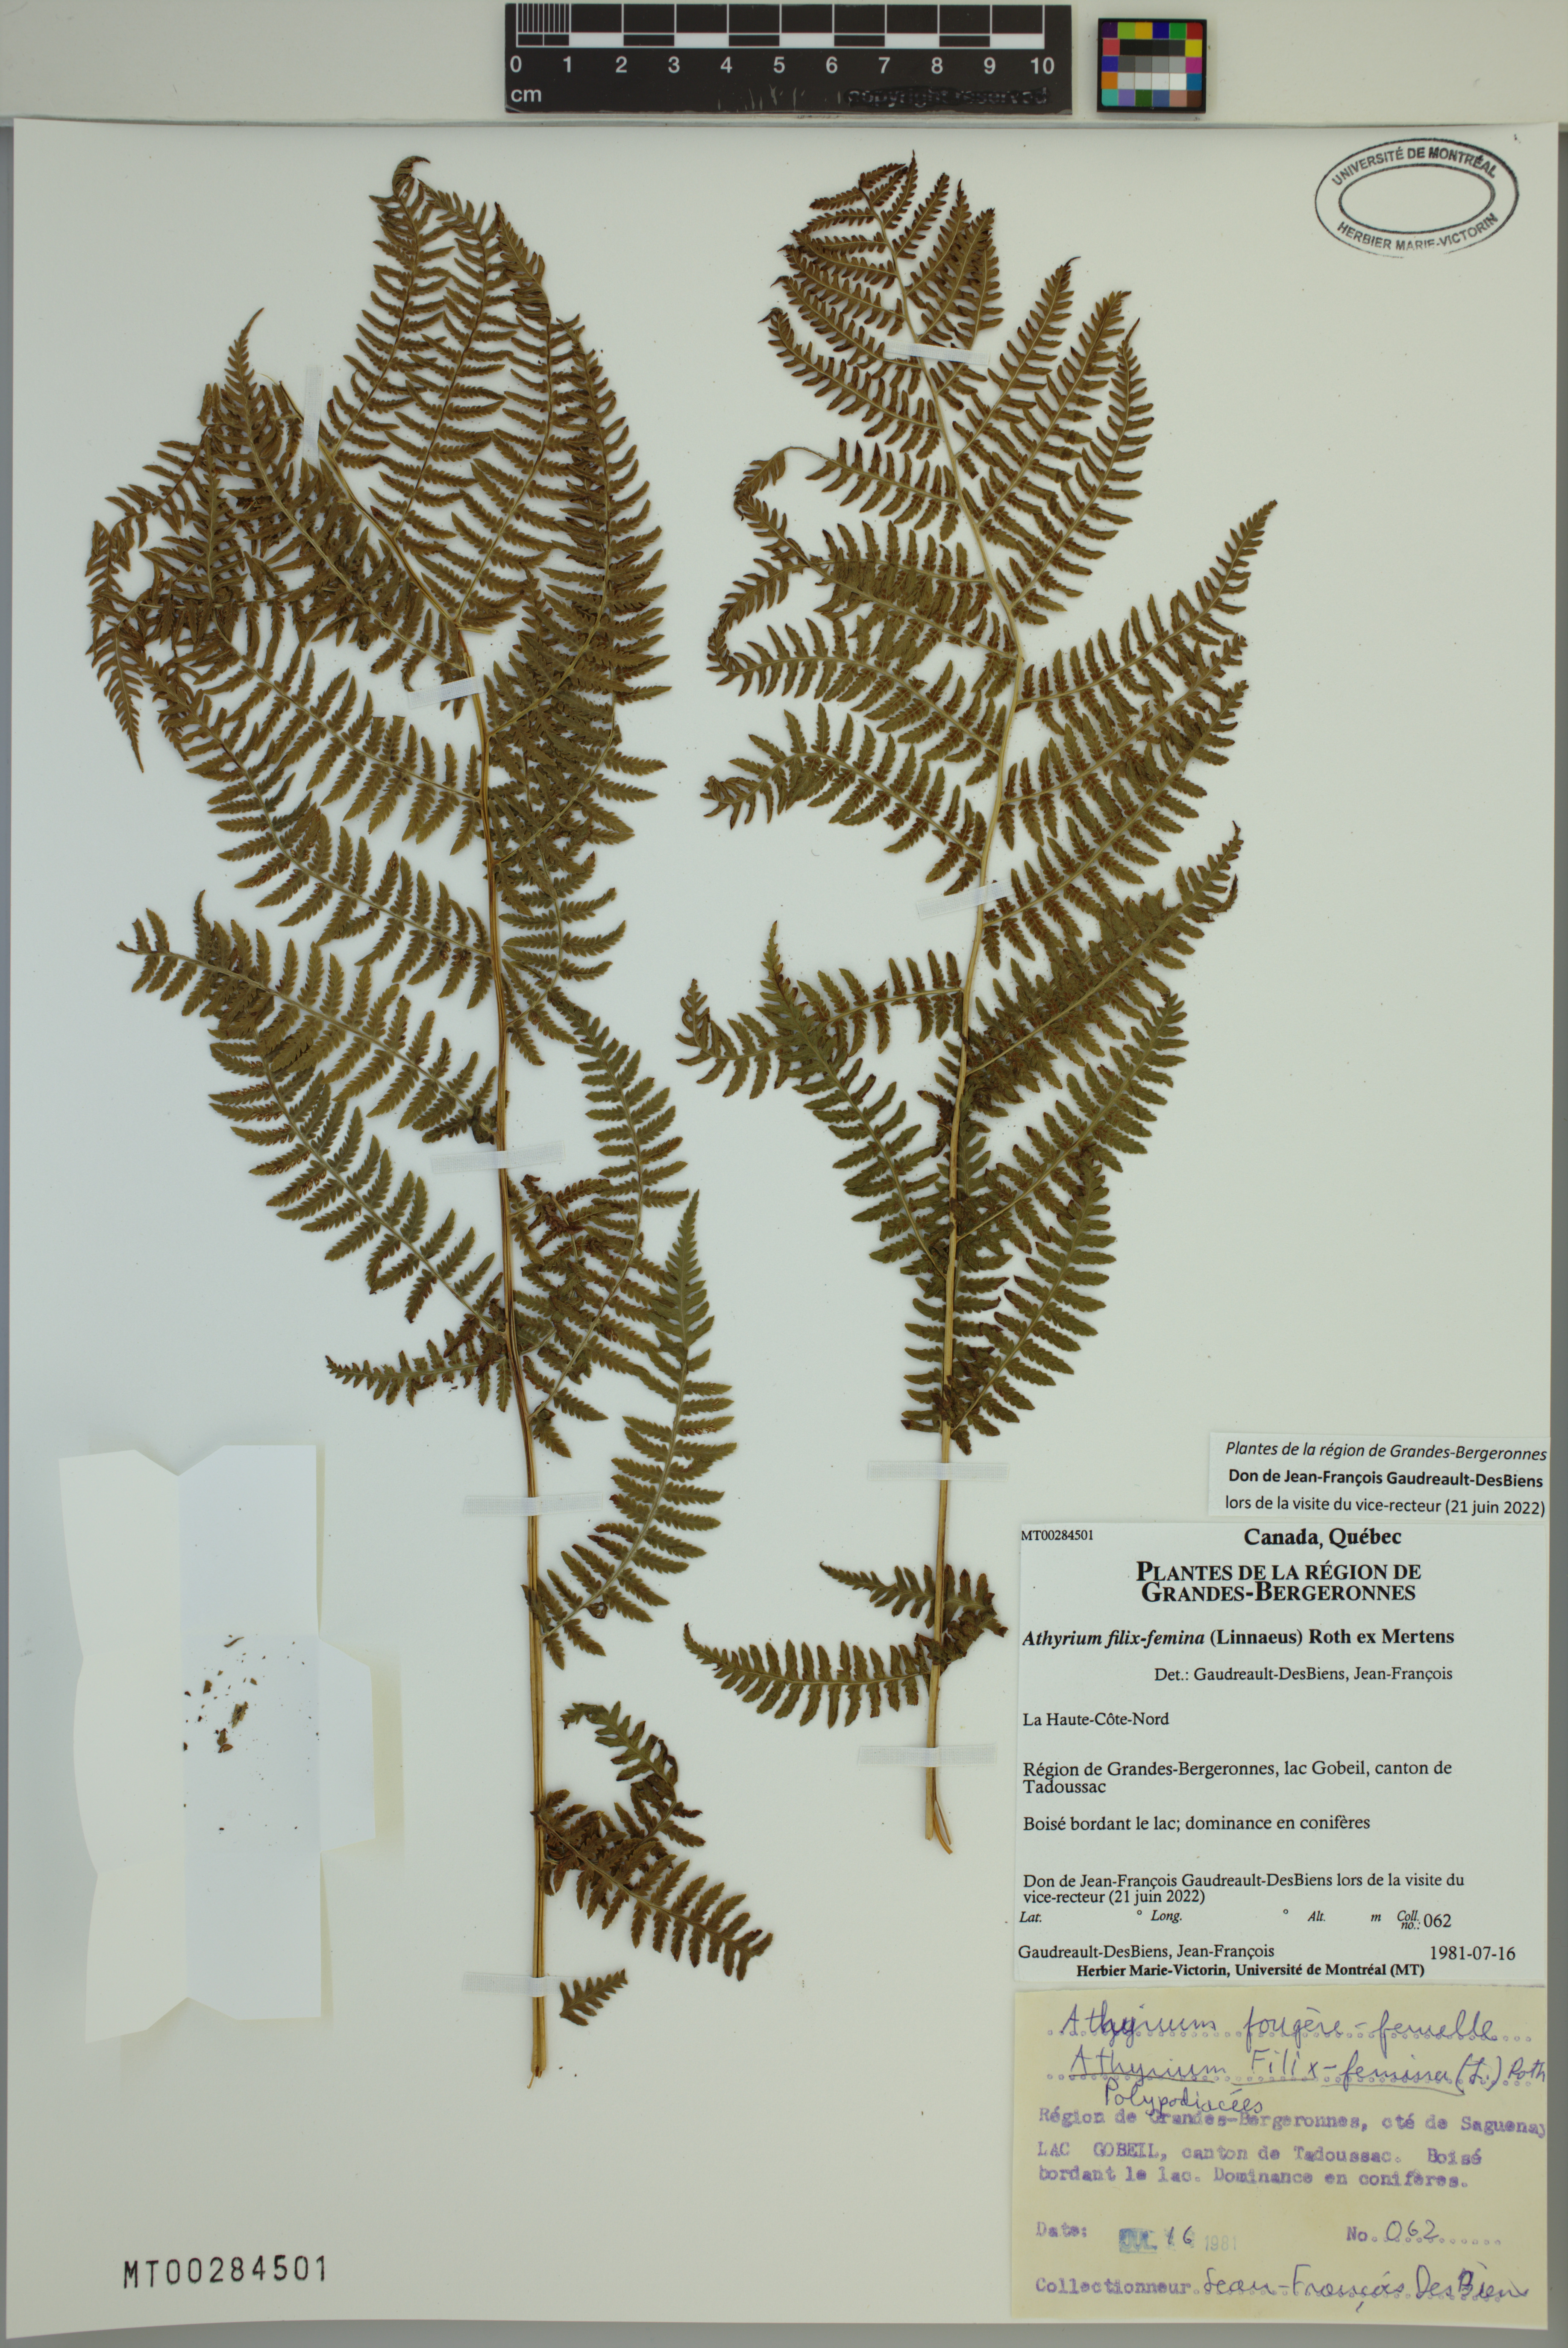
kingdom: Plantae
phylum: Tracheophyta
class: Polypodiopsida
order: Polypodiales
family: Athyriaceae
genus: Athyrium
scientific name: Athyrium filix-femina
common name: Lady fern
